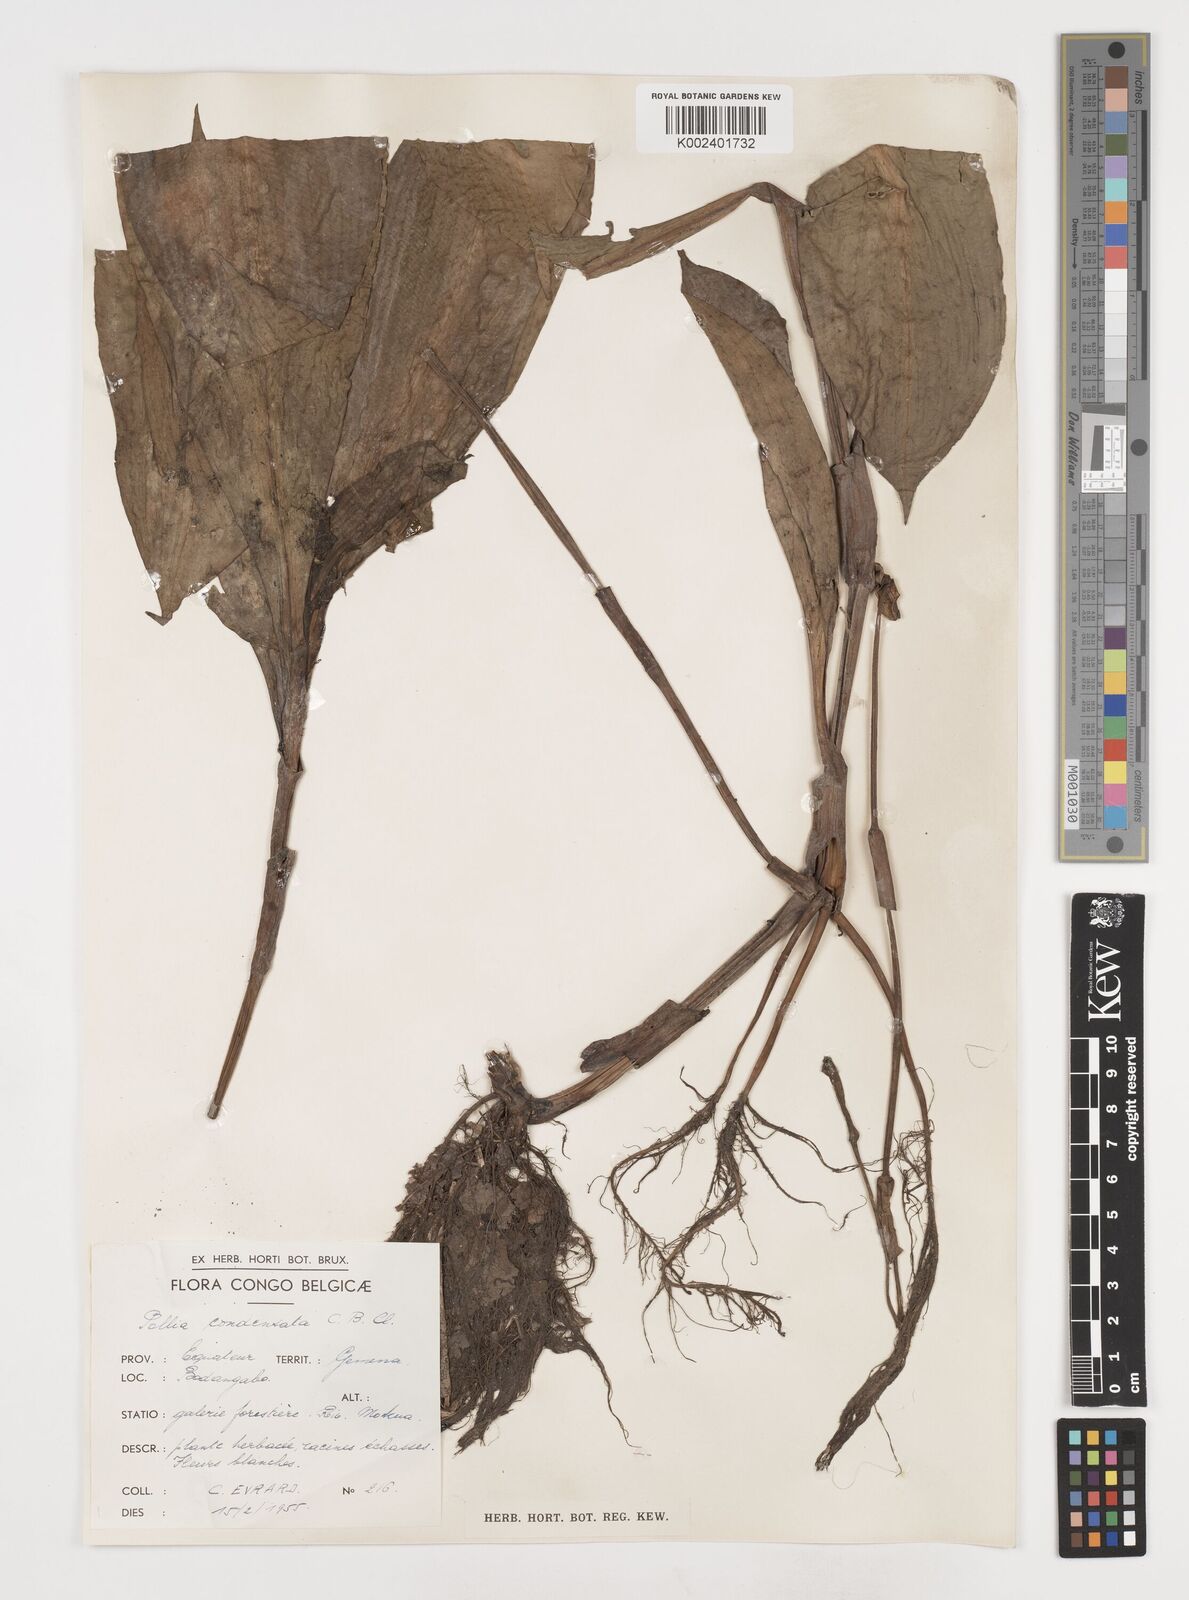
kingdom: Plantae
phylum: Tracheophyta
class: Liliopsida
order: Commelinales
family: Commelinaceae
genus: Pollia
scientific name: Pollia condensata
